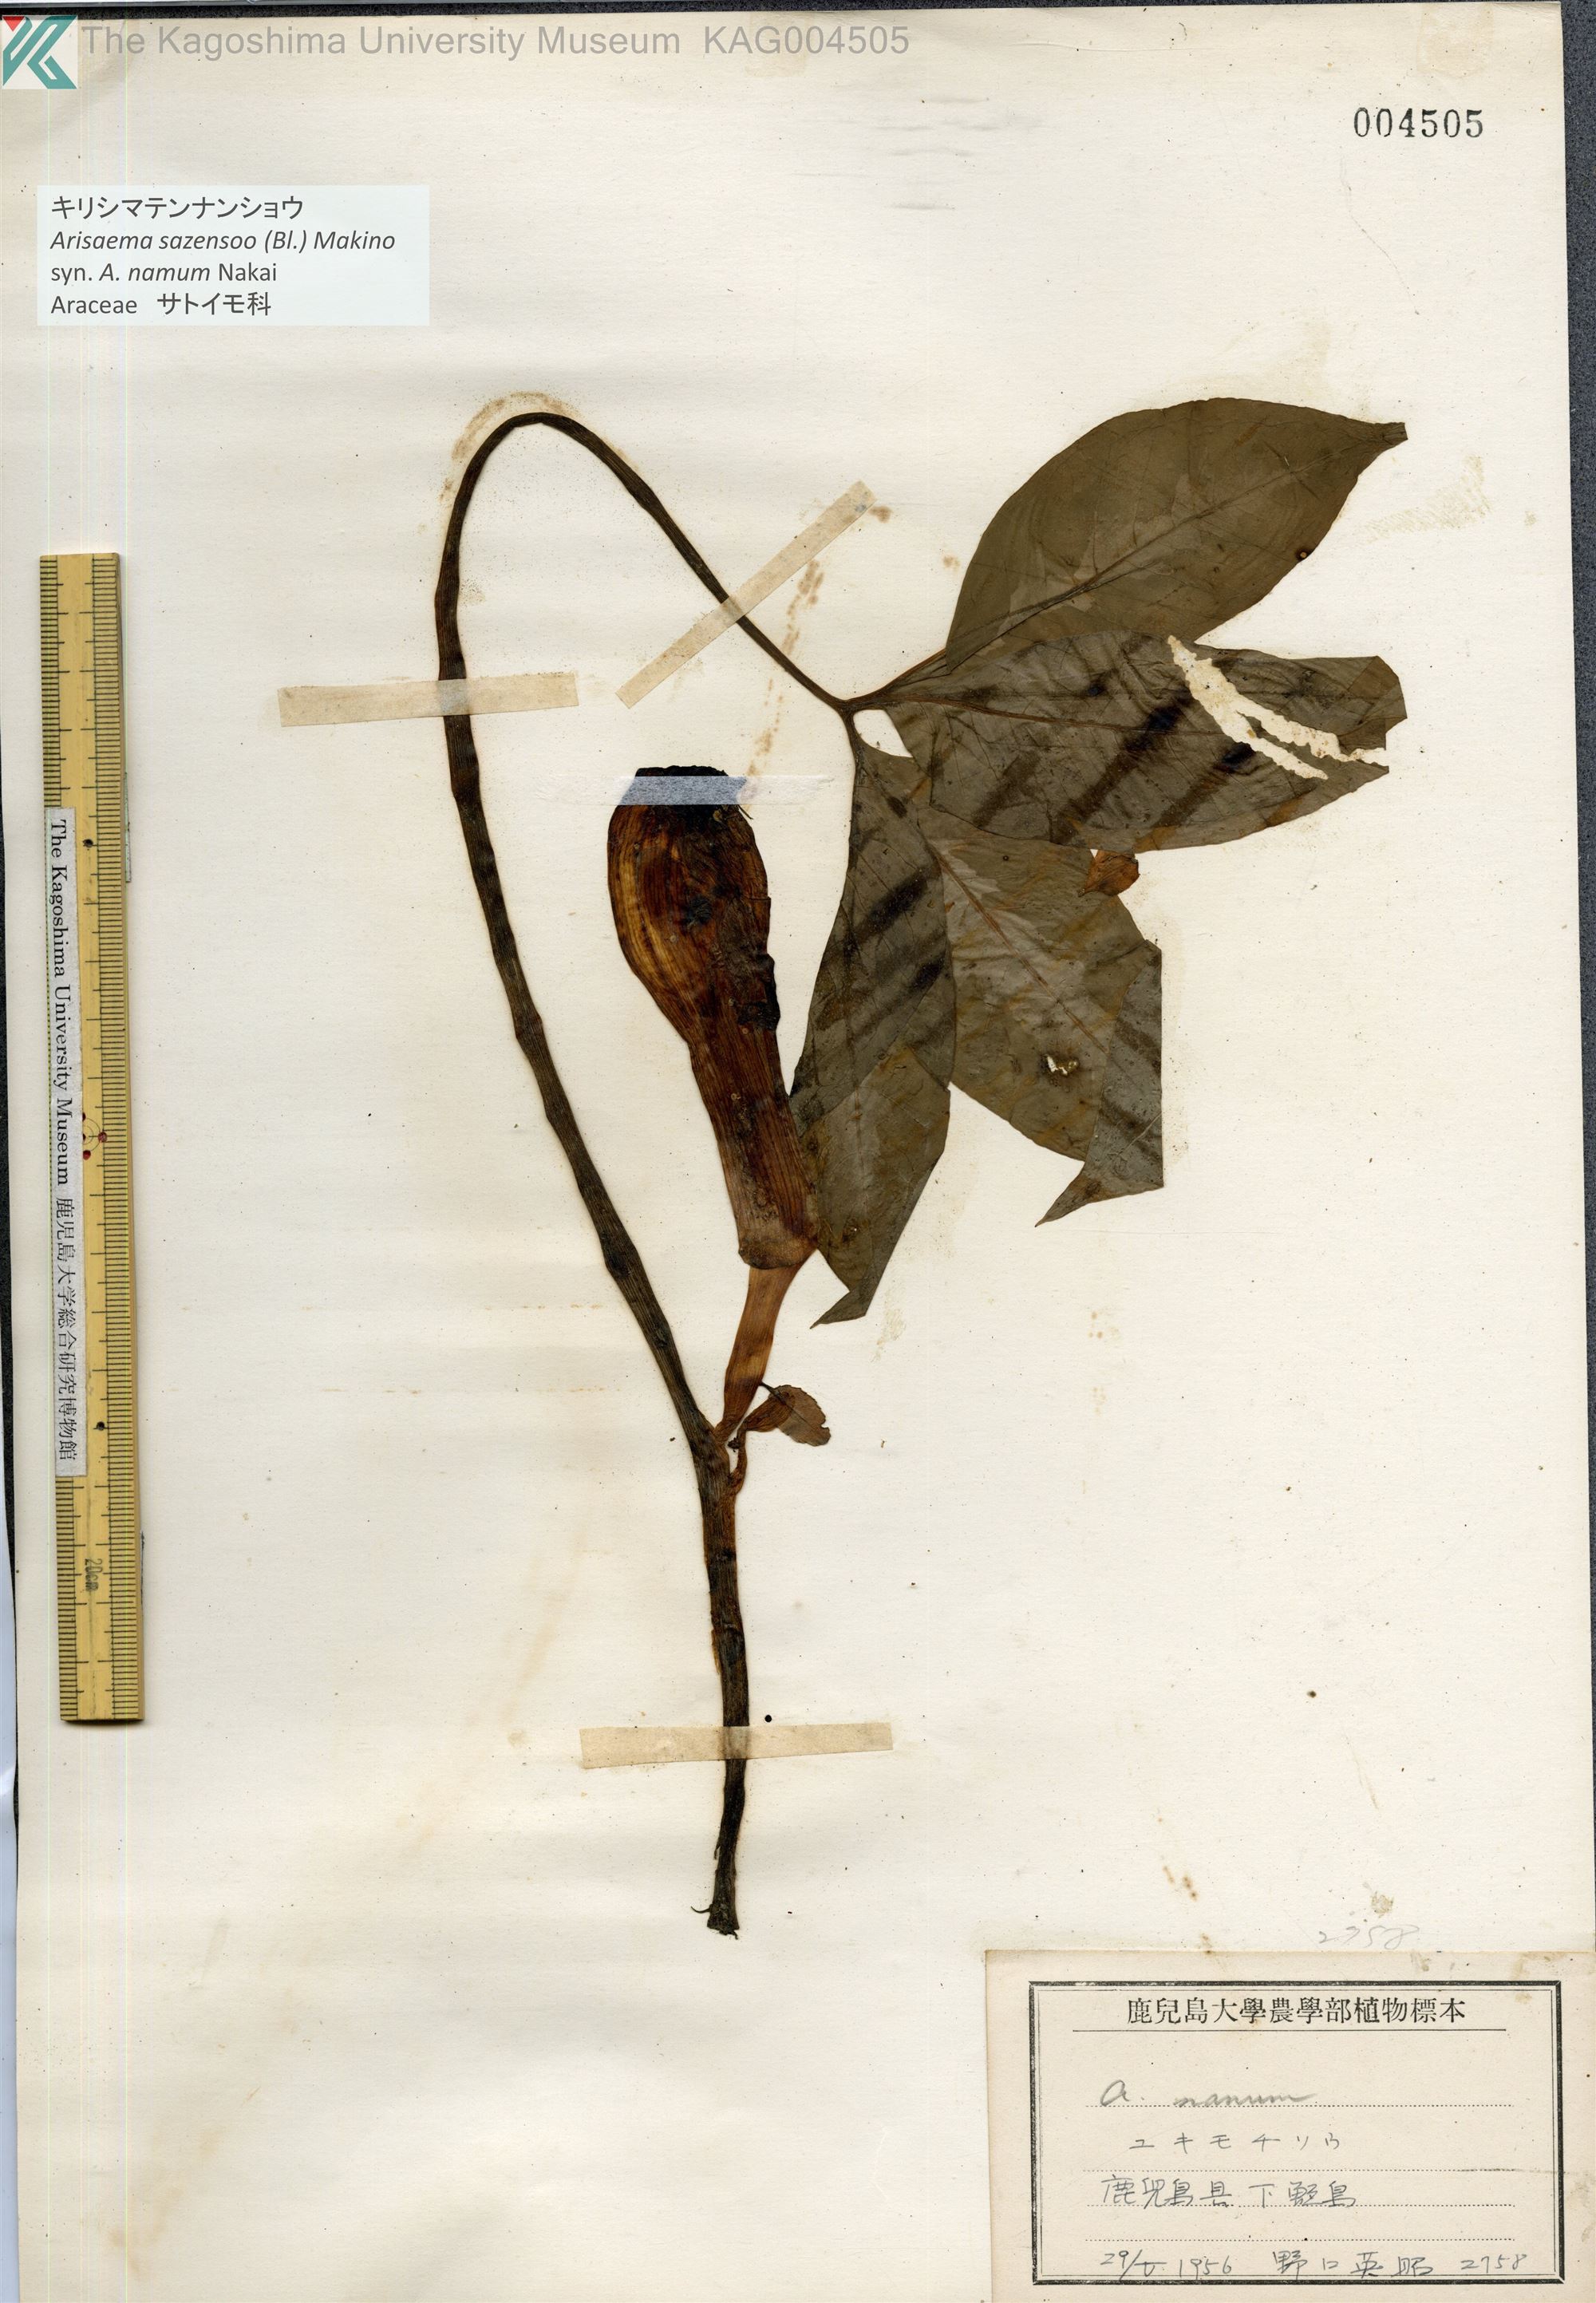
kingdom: Plantae
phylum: Tracheophyta
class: Liliopsida
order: Alismatales
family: Araceae
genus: Arisaema
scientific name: Arisaema sazensoo
